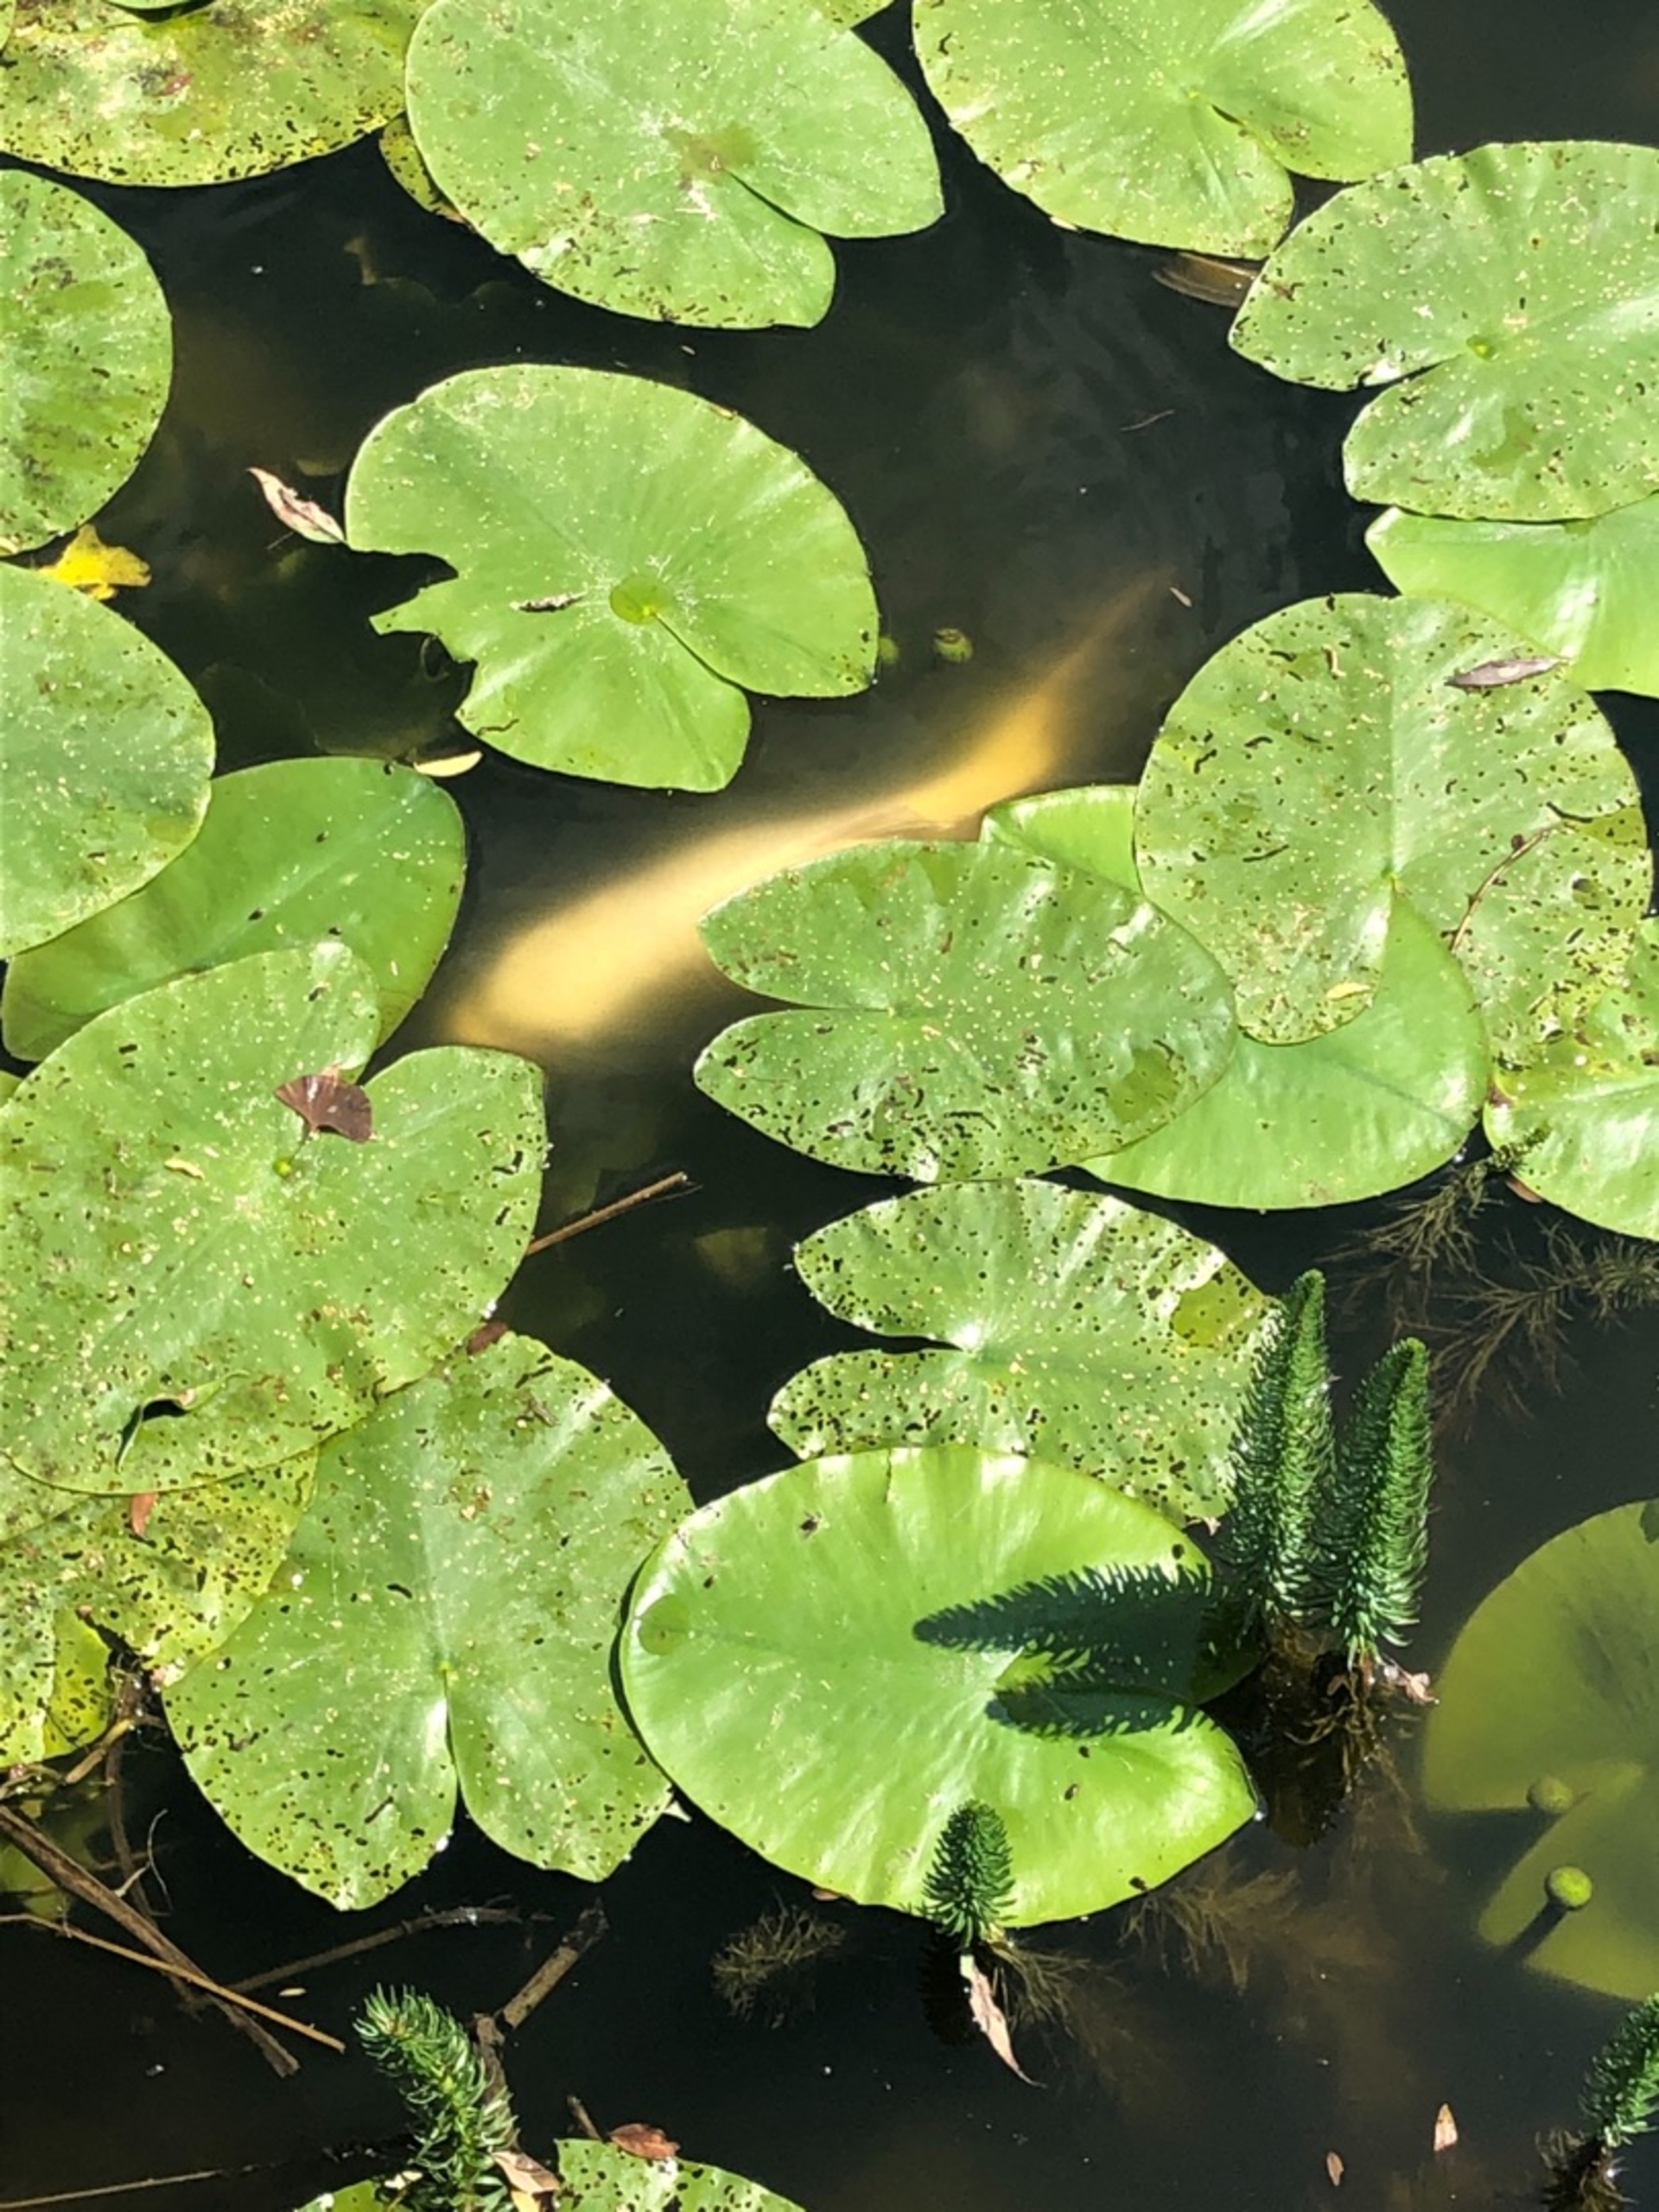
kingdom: Animalia
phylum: Chordata
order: Cypriniformes
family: Cyprinidae
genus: Cyprinus
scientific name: Cyprinus carpio
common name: Karpe
